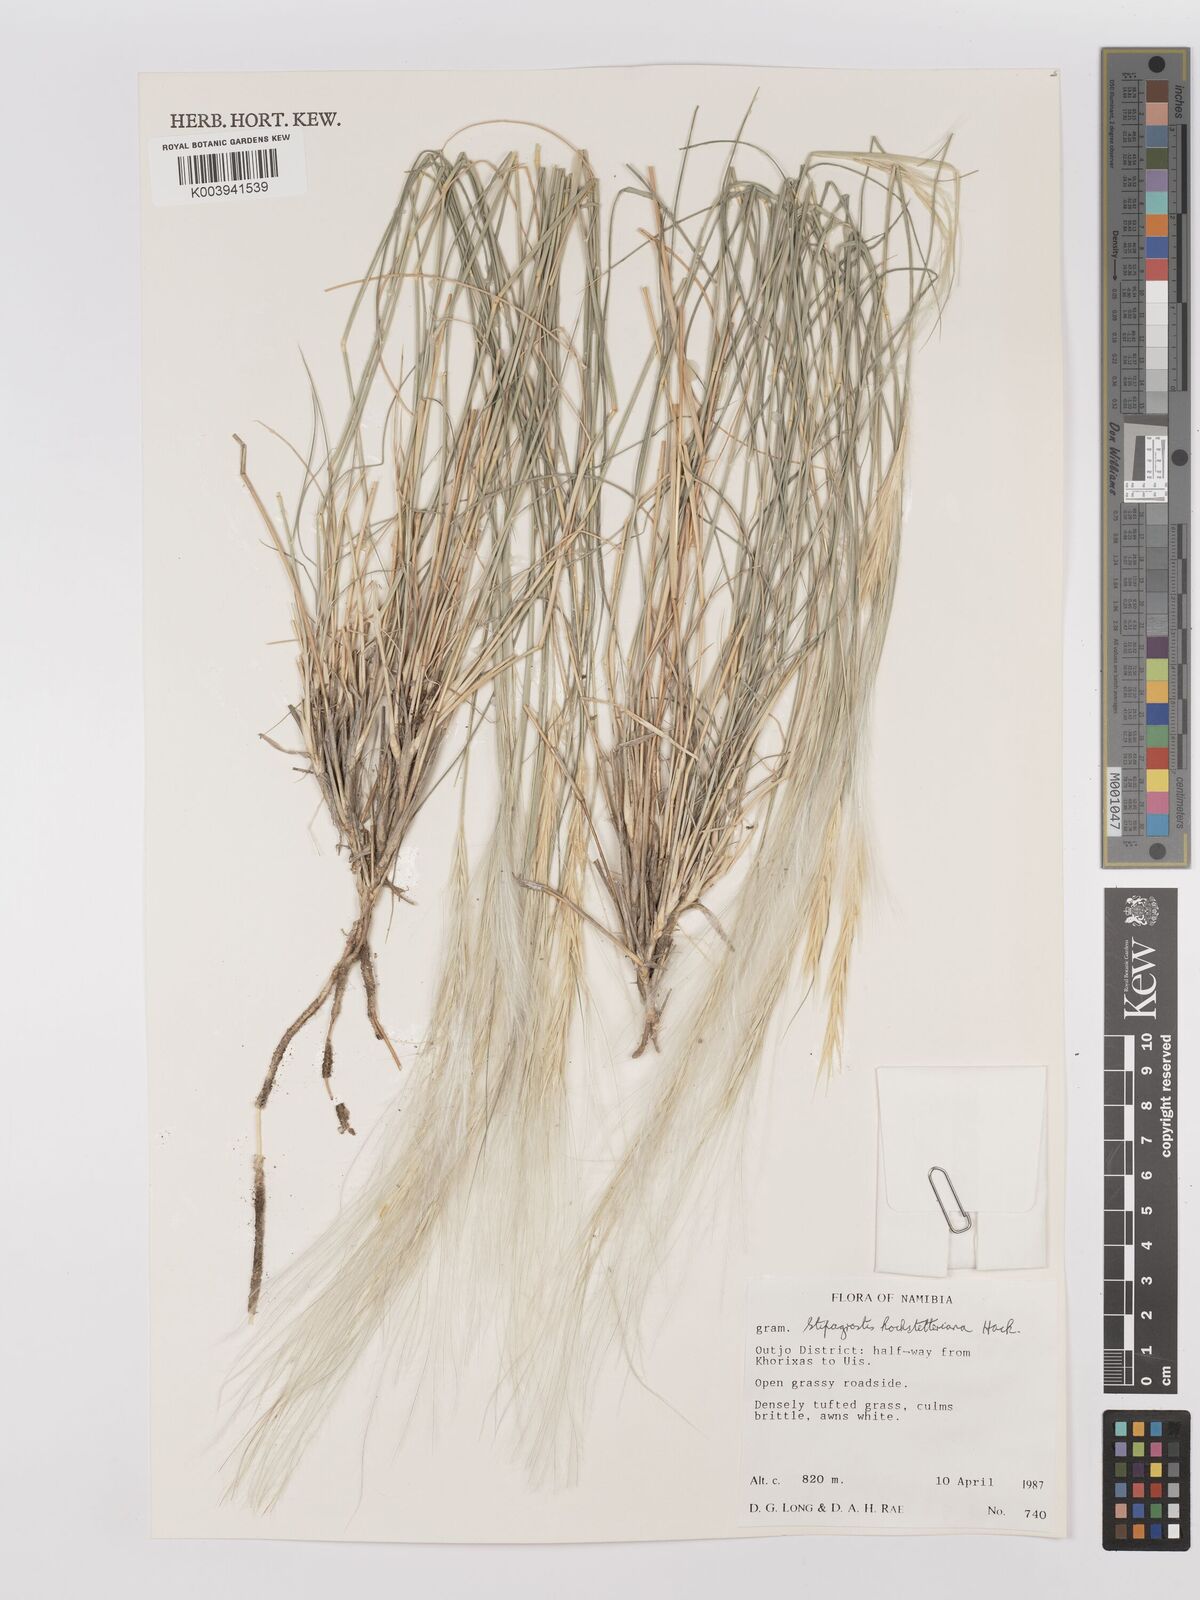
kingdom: Plantae
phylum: Tracheophyta
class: Liliopsida
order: Poales
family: Poaceae
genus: Stipagrostis
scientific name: Stipagrostis hochstetteriana
